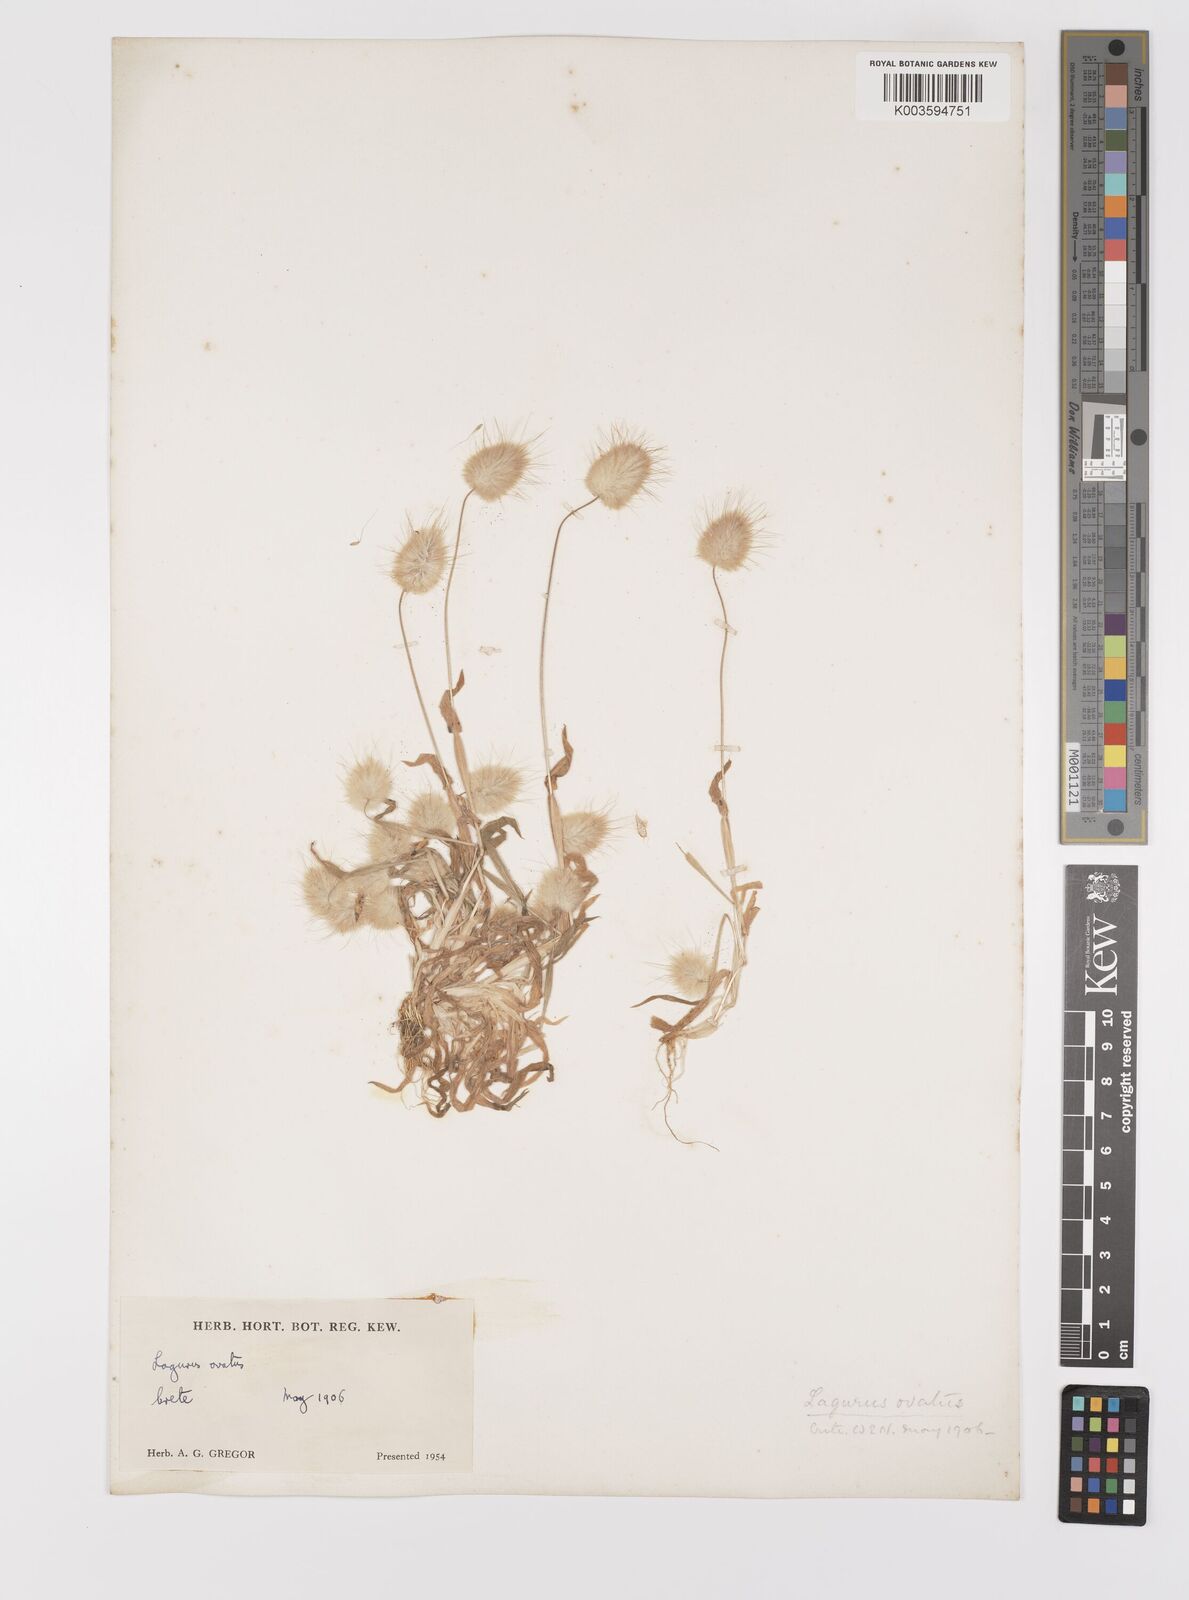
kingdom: Plantae
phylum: Tracheophyta
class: Liliopsida
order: Poales
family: Poaceae
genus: Lagurus
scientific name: Lagurus ovatus
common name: Hare's-tail
